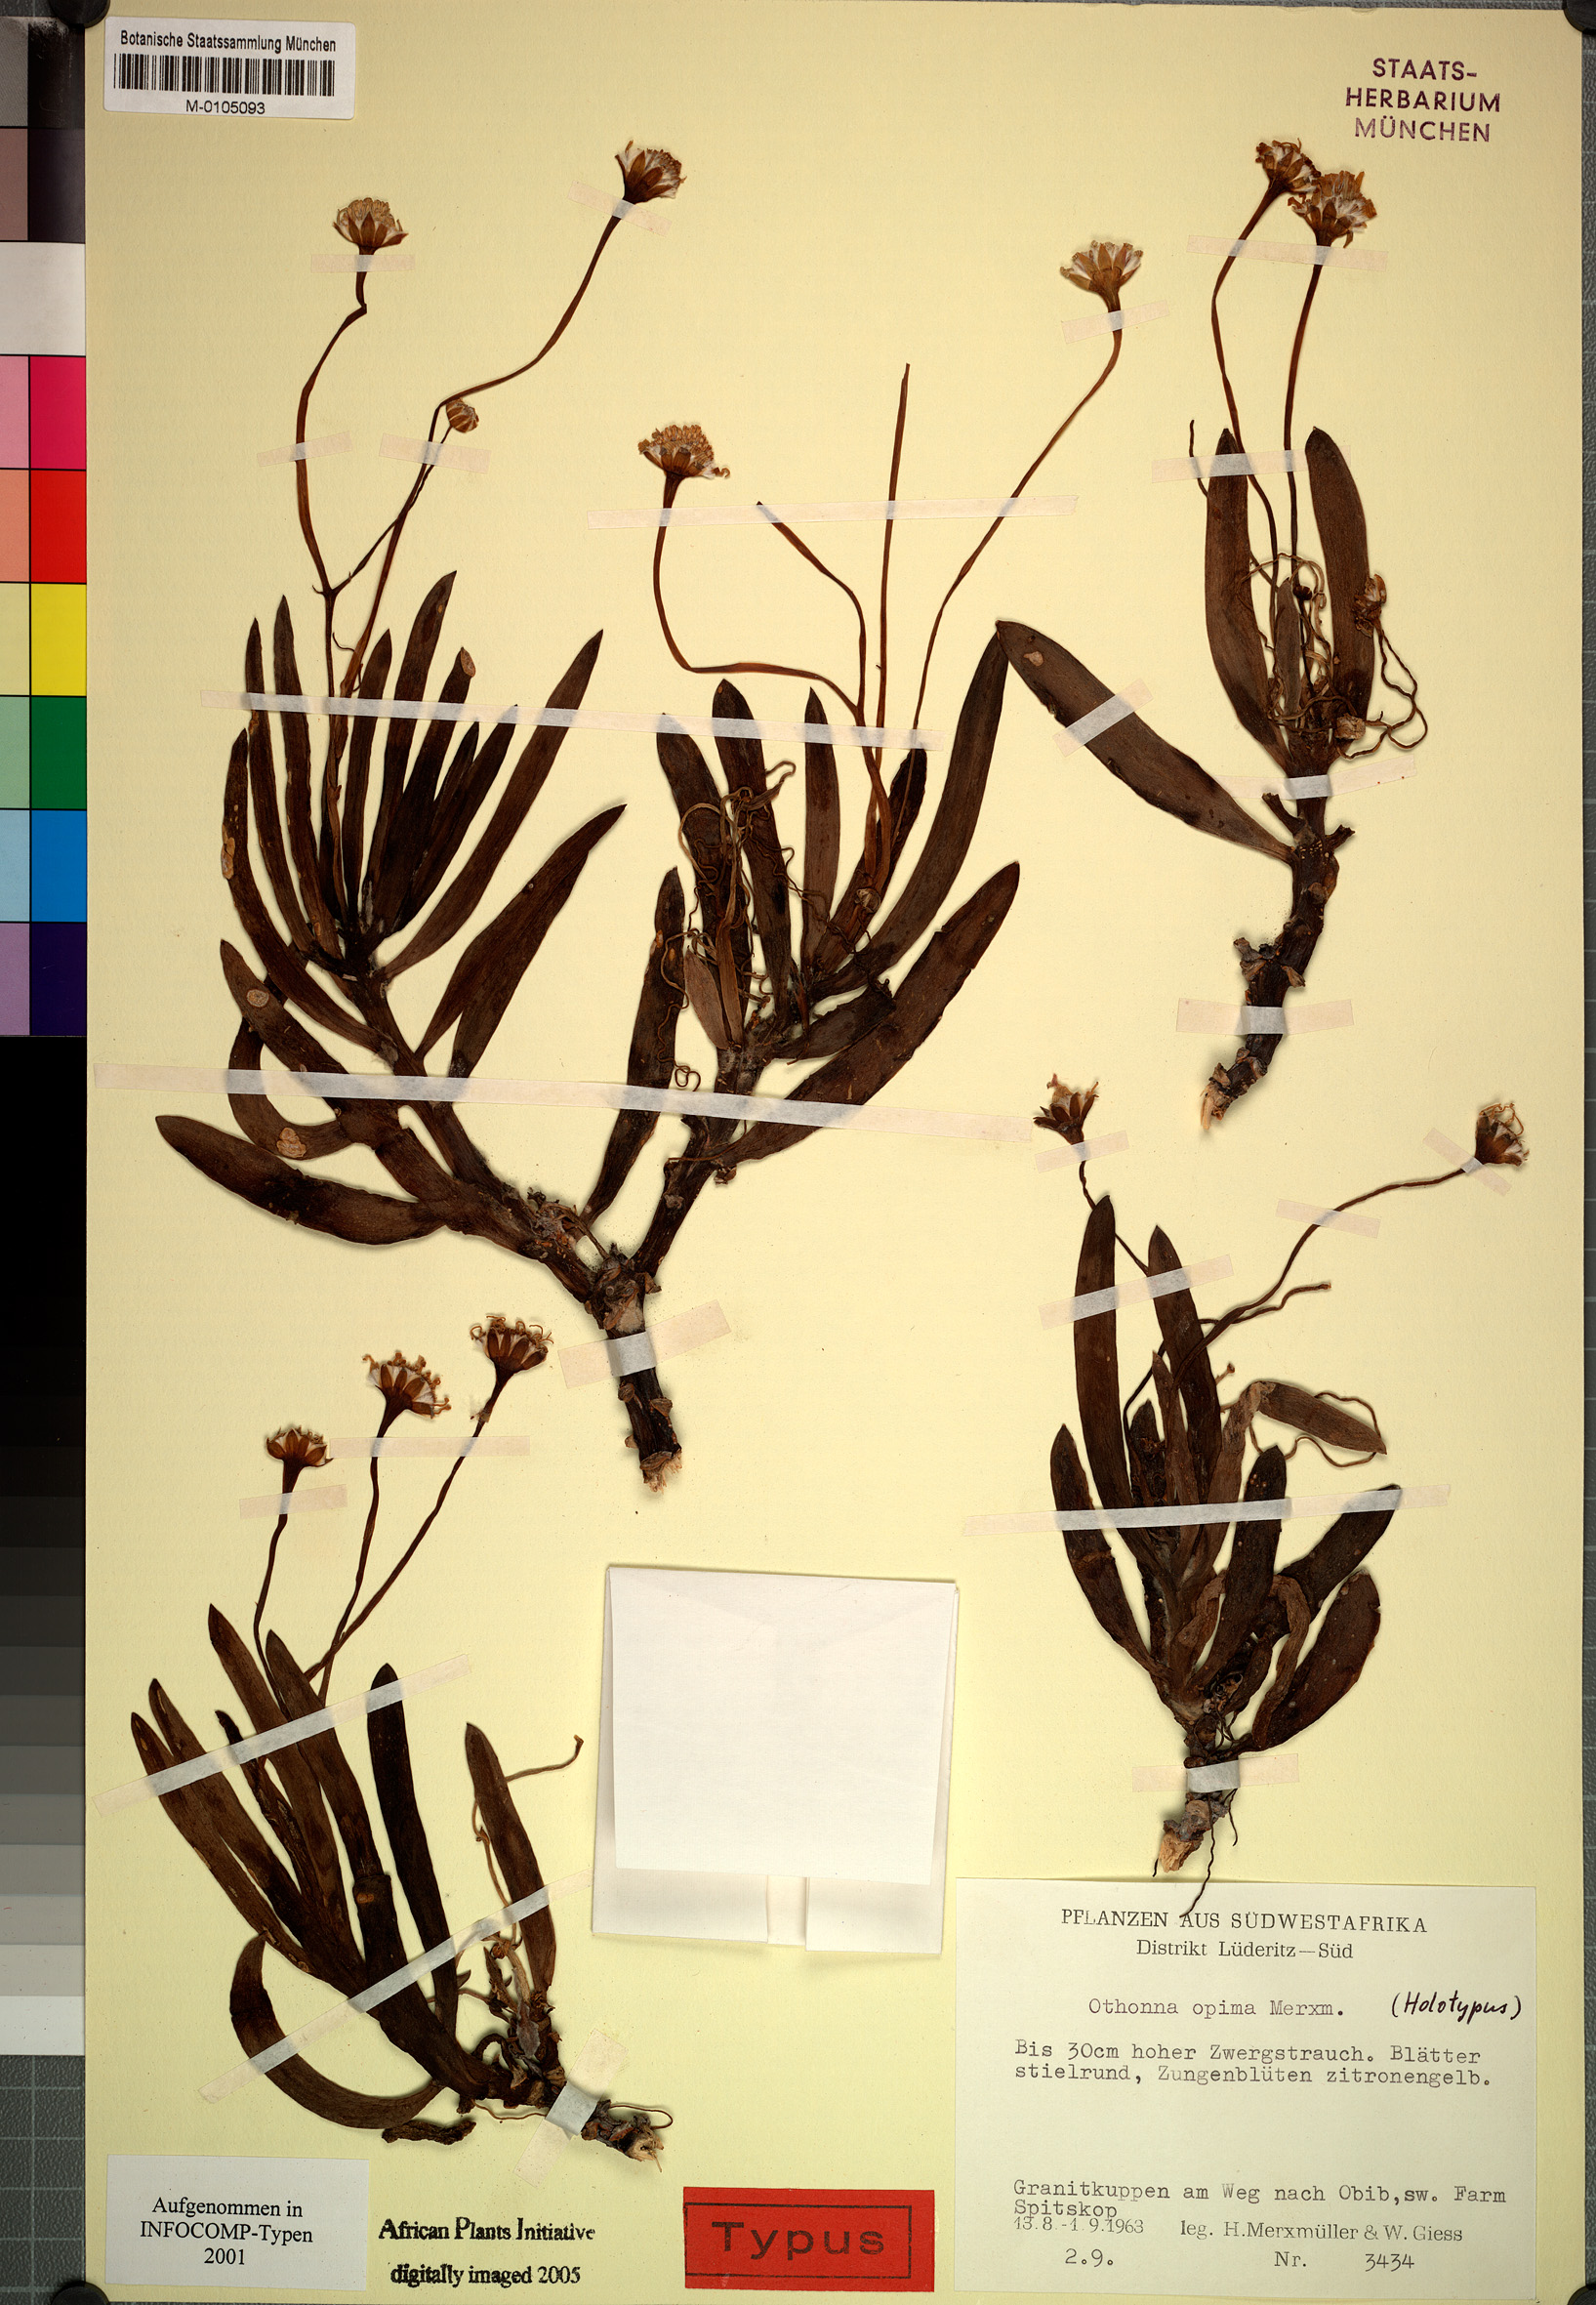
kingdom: Plantae
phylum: Tracheophyta
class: Magnoliopsida
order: Asterales
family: Asteraceae
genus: Othonna
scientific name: Othonna coronopifolia
